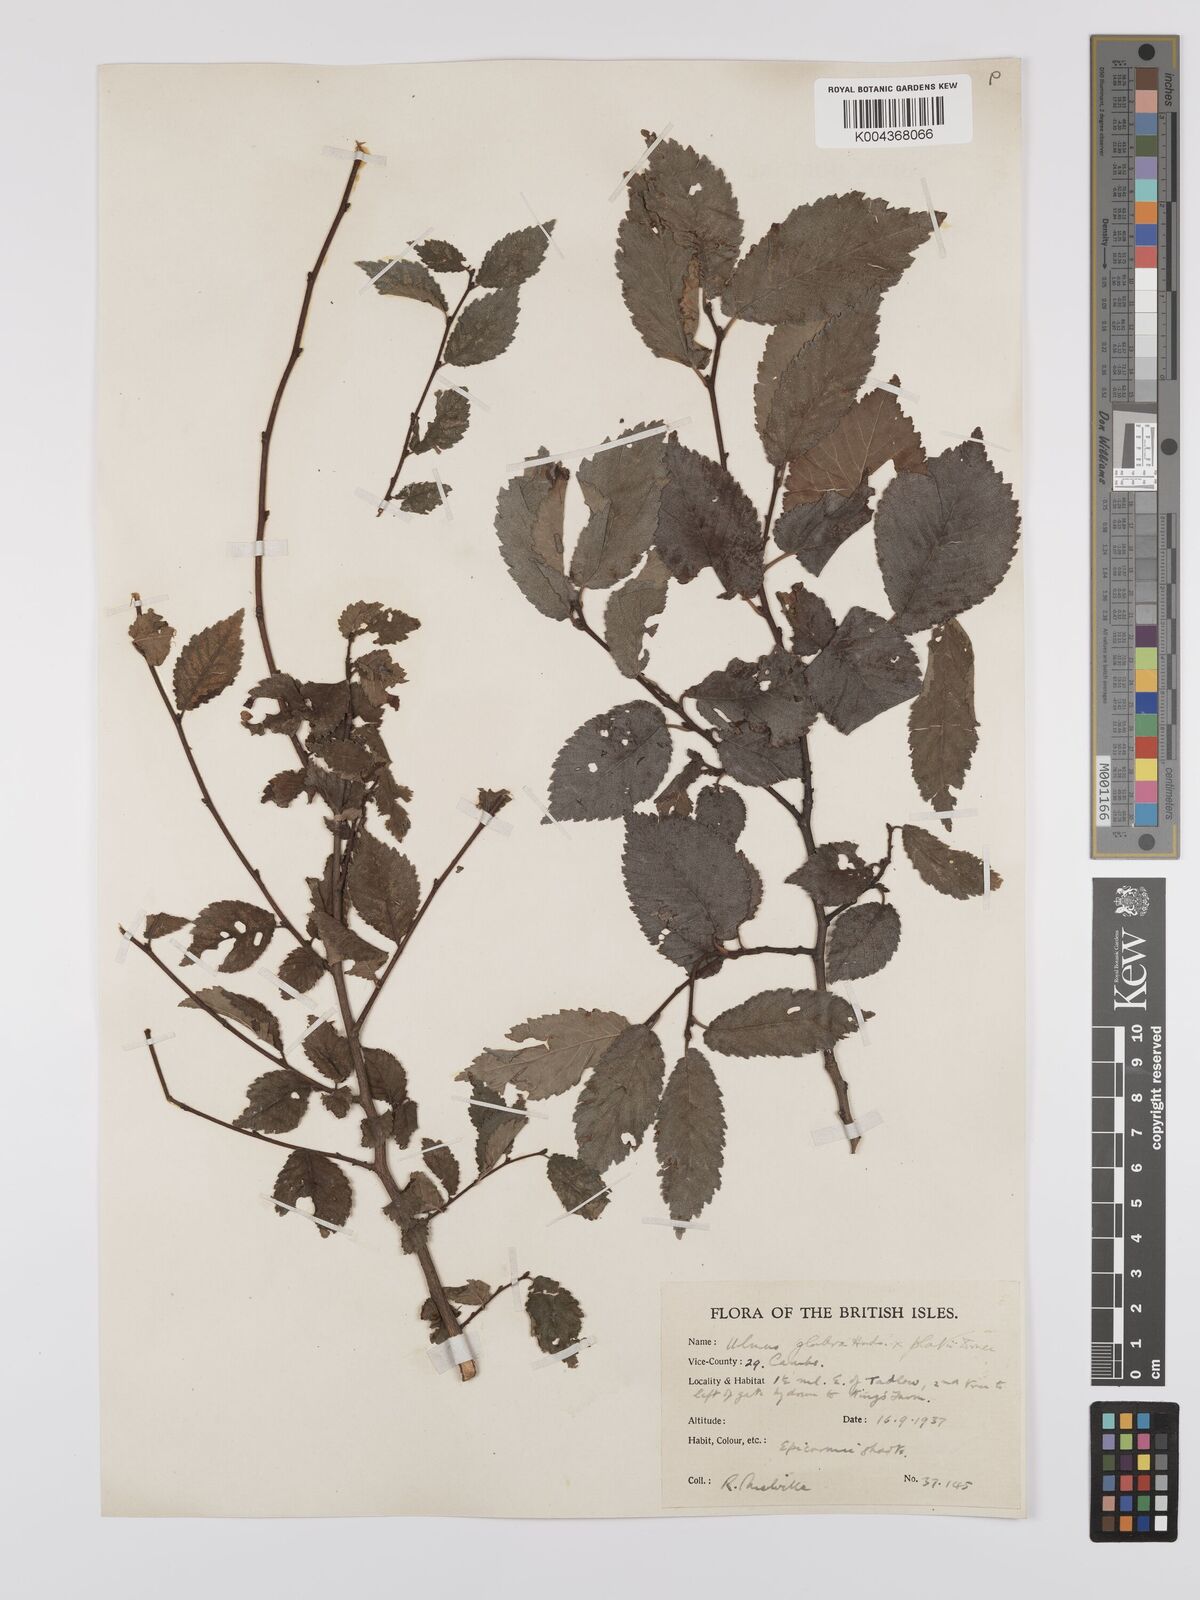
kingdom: Plantae
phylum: Tracheophyta
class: Magnoliopsida
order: Rosales
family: Ulmaceae
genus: Ulmus
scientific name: Ulmus
